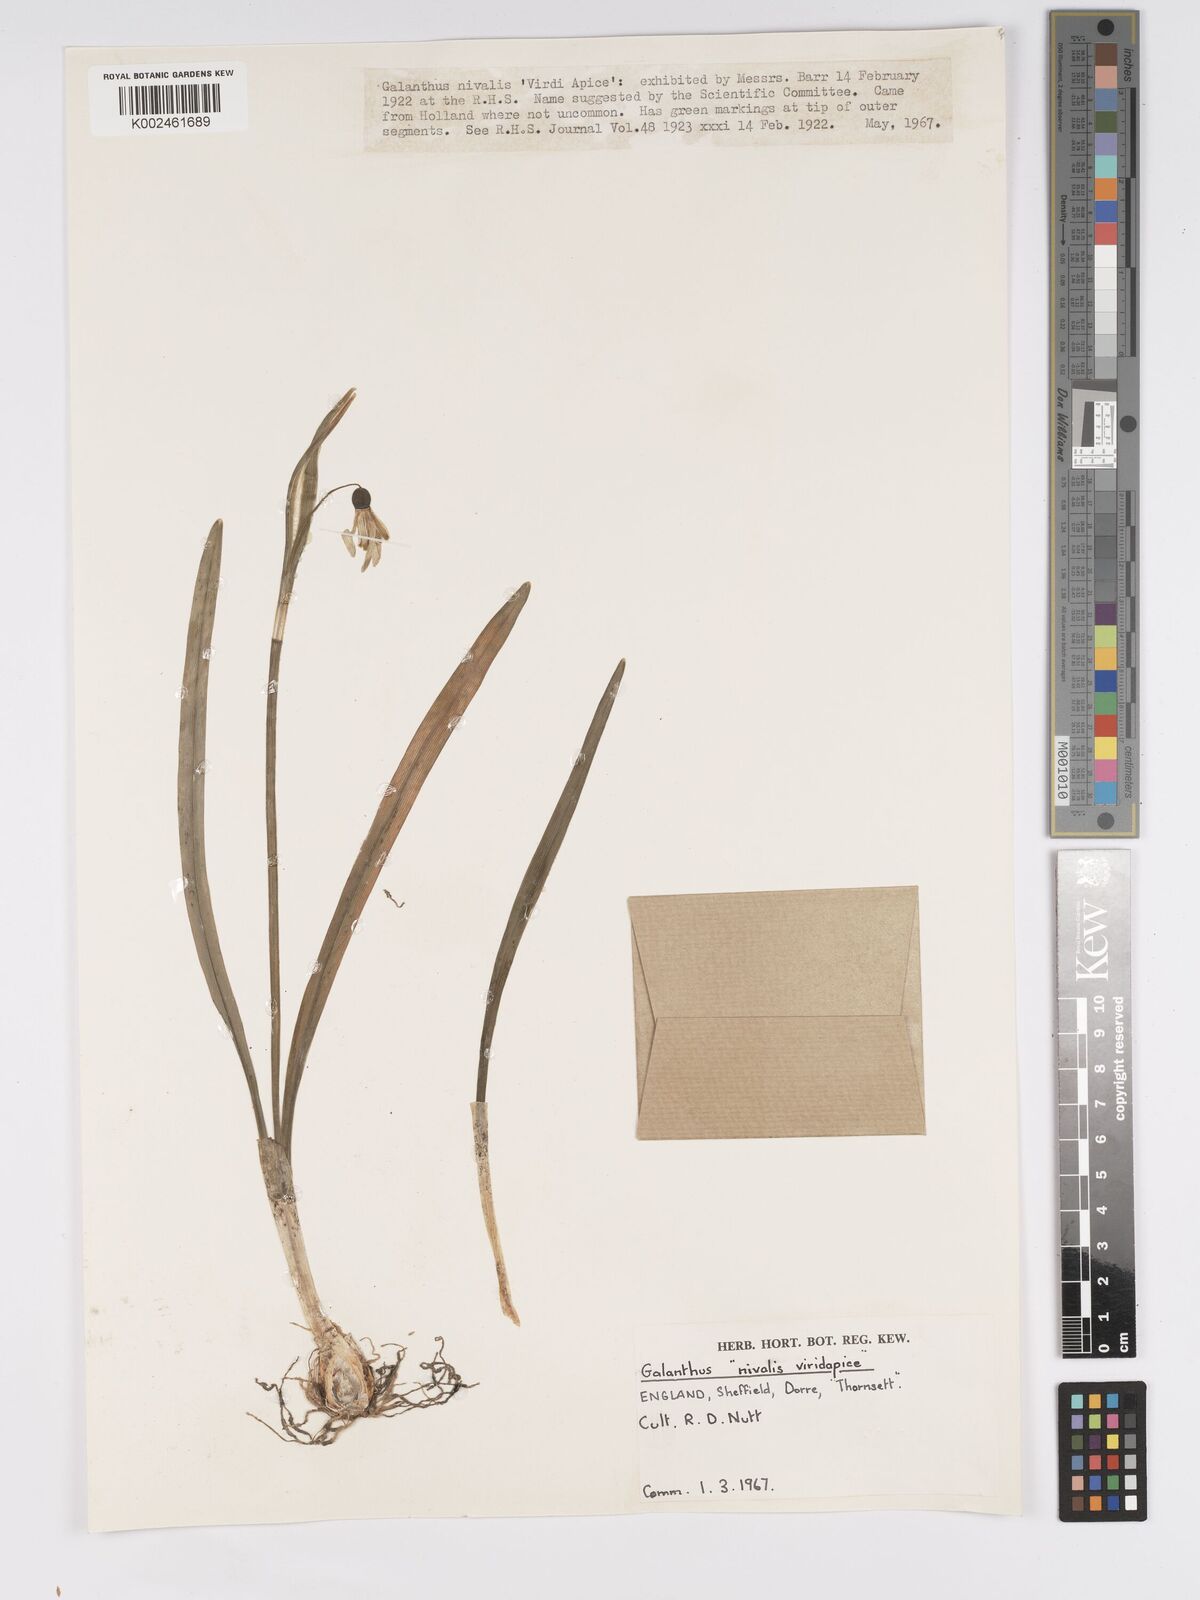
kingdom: Plantae
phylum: Tracheophyta
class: Liliopsida
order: Asparagales
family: Amaryllidaceae
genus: Galanthus
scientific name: Galanthus
